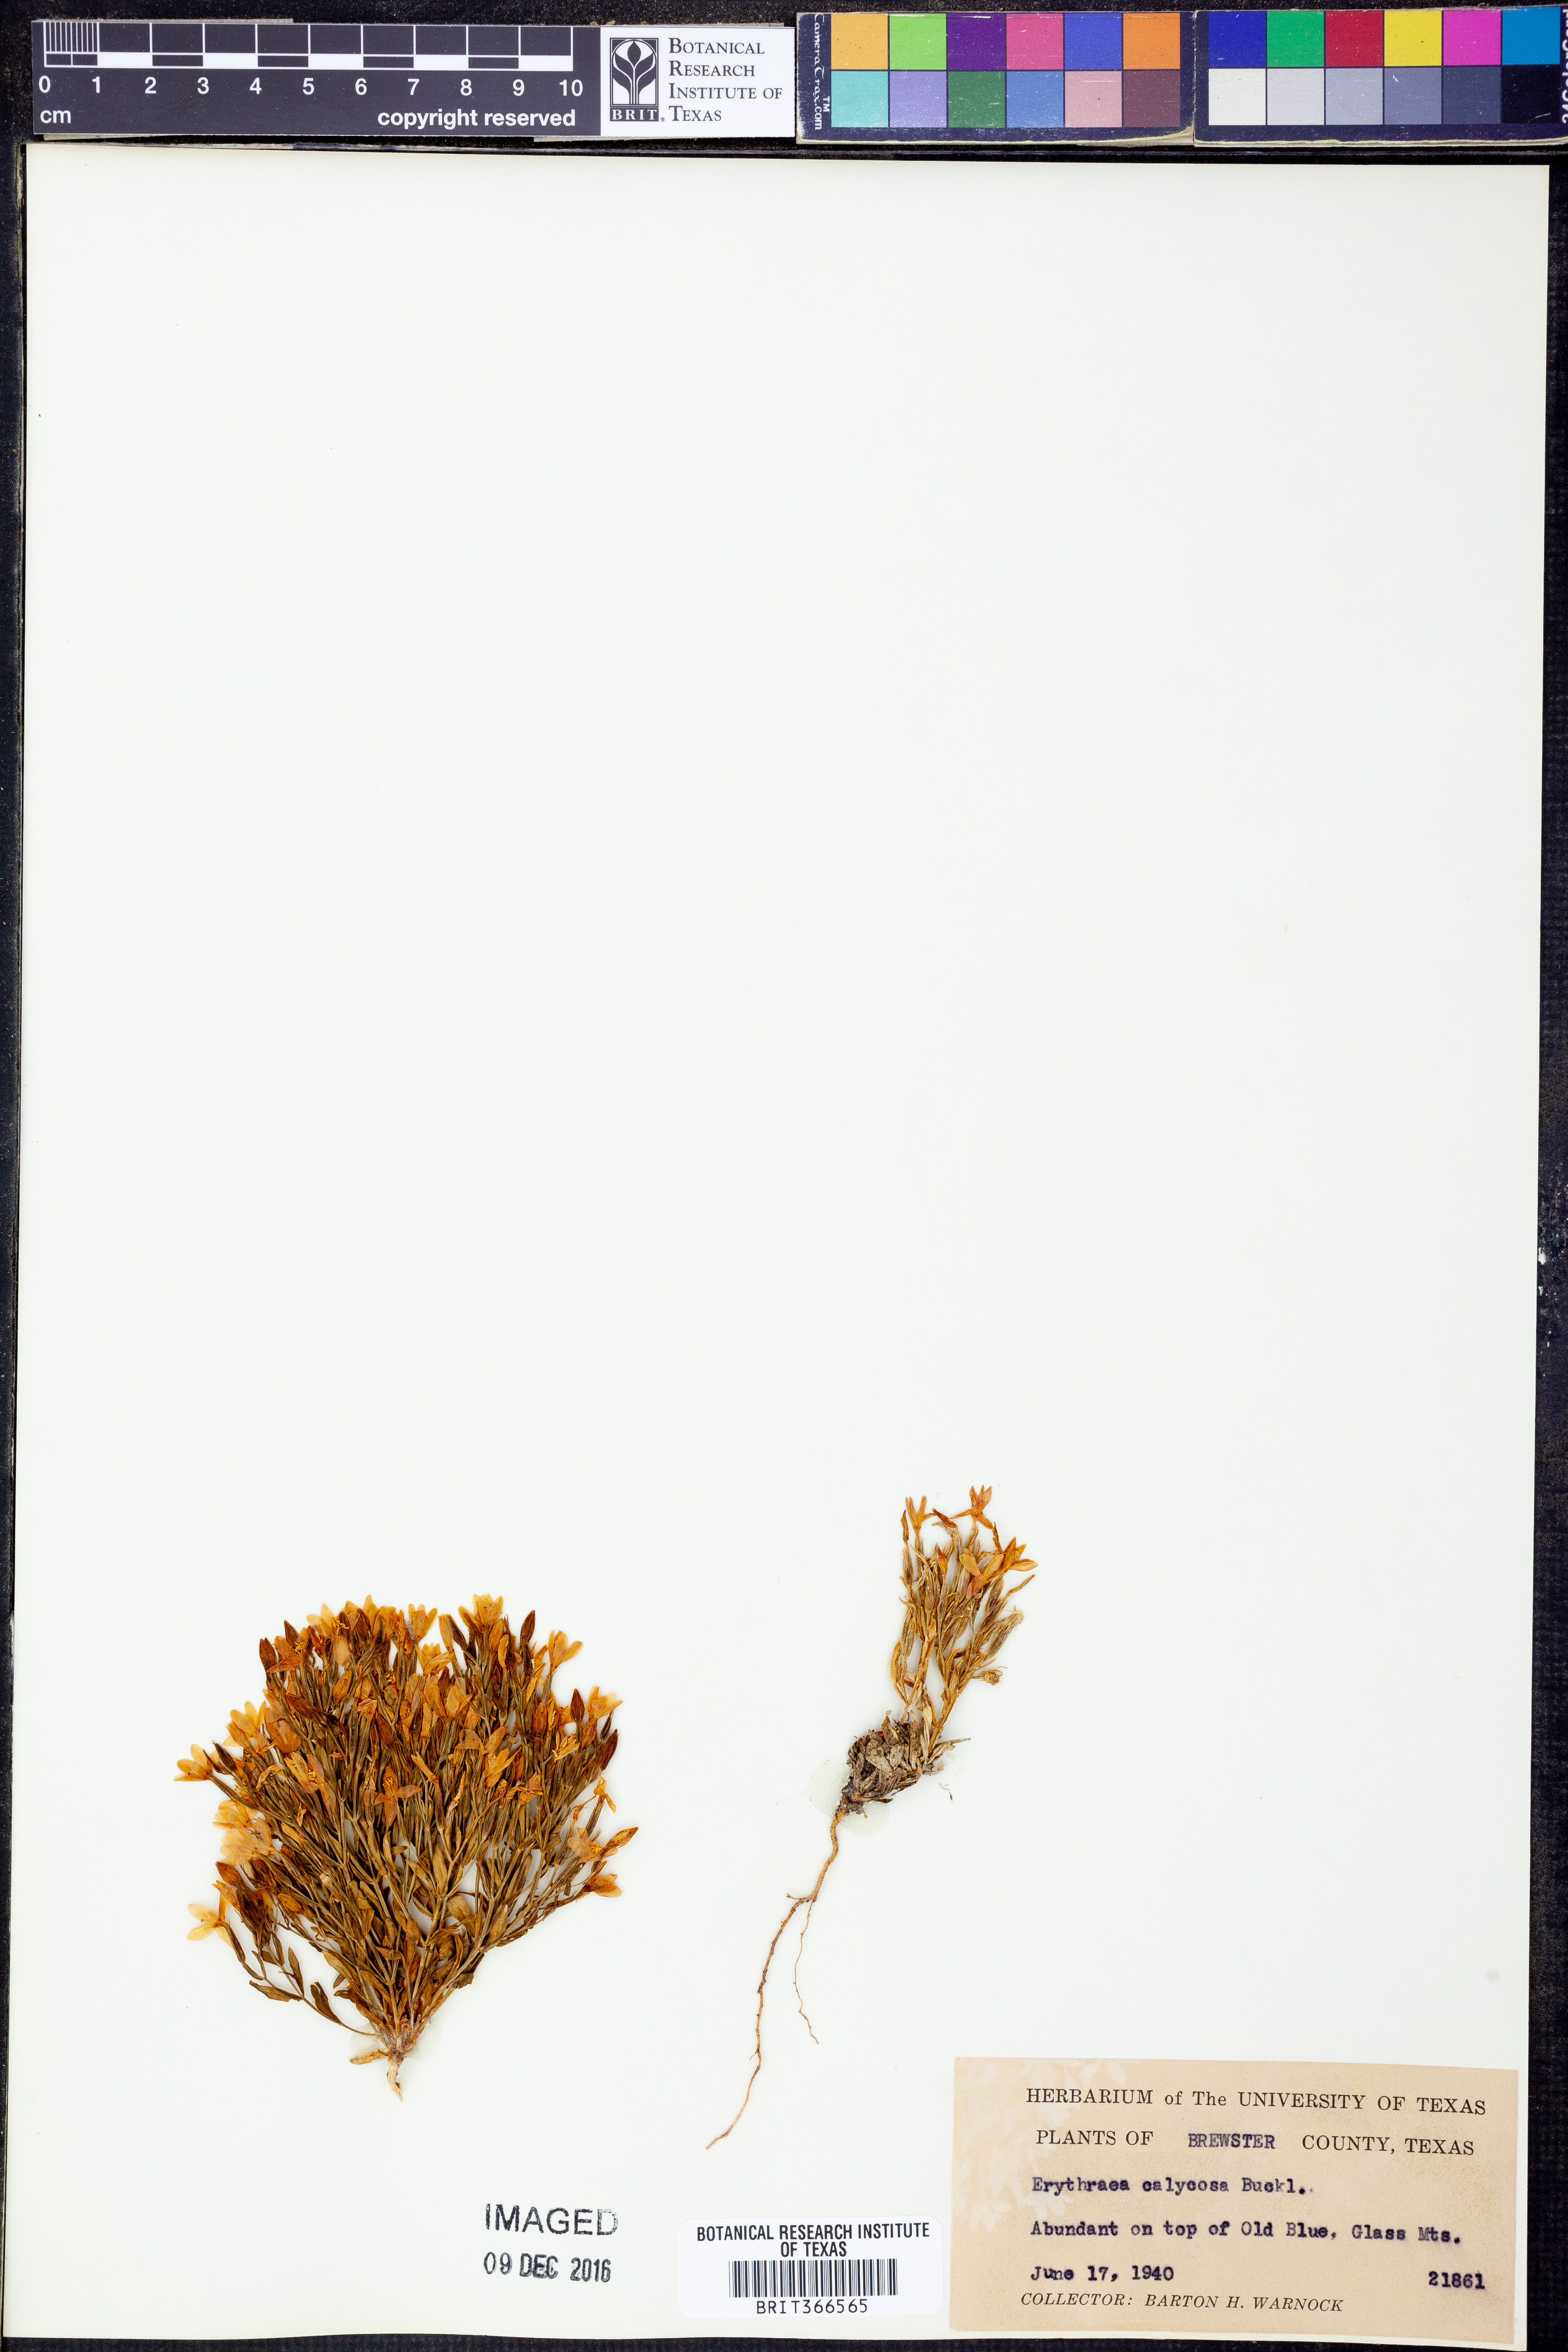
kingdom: Plantae
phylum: Tracheophyta
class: Magnoliopsida
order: Gentianales
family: Gentianaceae
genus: Zeltnera
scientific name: Zeltnera calycosa
